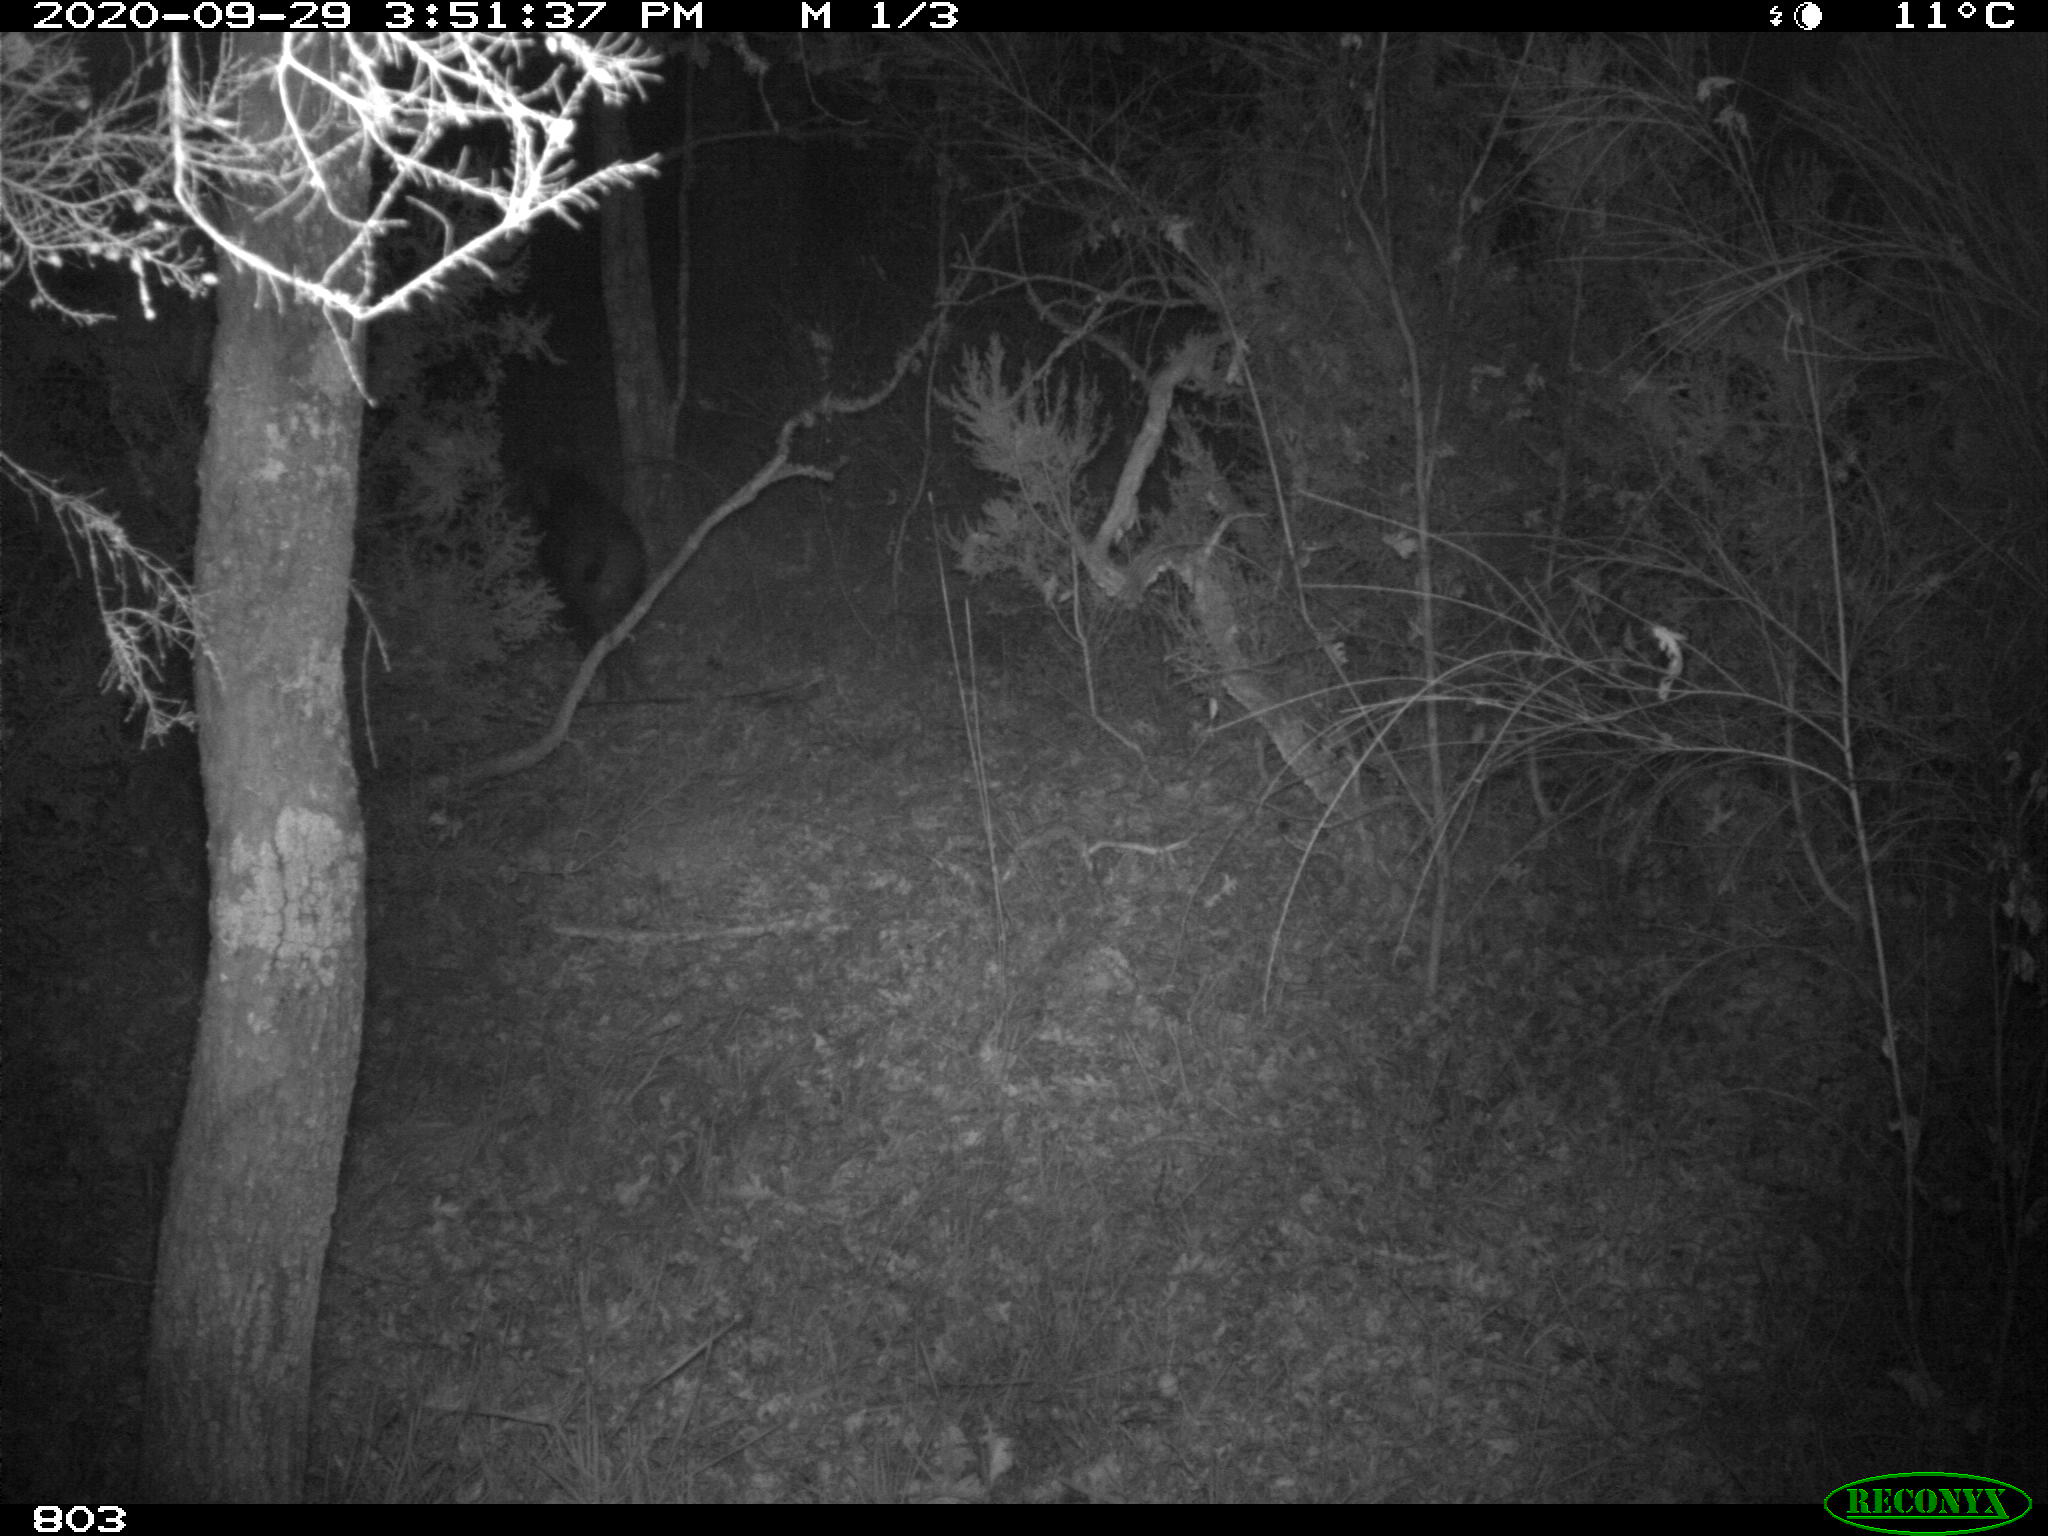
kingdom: Animalia
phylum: Chordata
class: Mammalia
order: Artiodactyla
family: Suidae
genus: Sus
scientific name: Sus scrofa
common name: Wild boar
